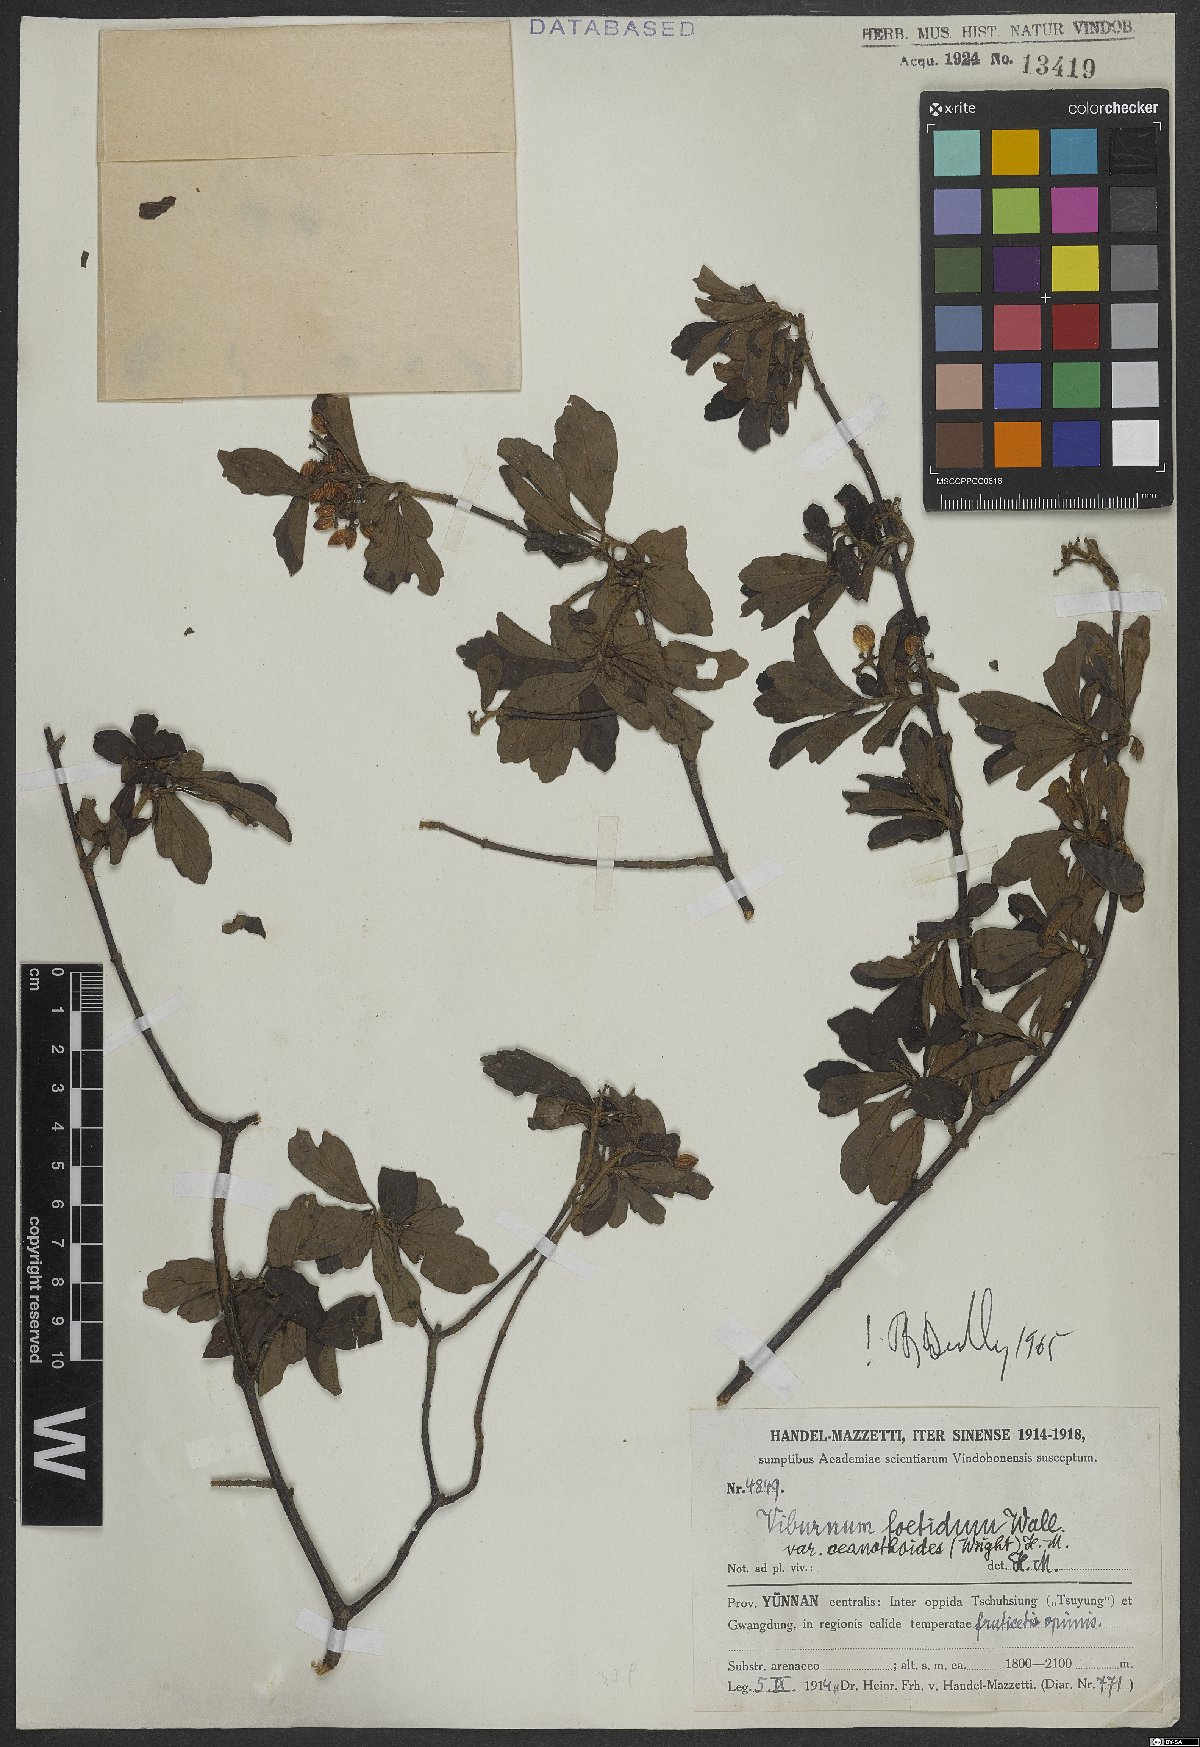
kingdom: Plantae
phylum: Tracheophyta
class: Magnoliopsida
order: Dipsacales
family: Viburnaceae
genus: Viburnum
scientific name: Viburnum foetidum
